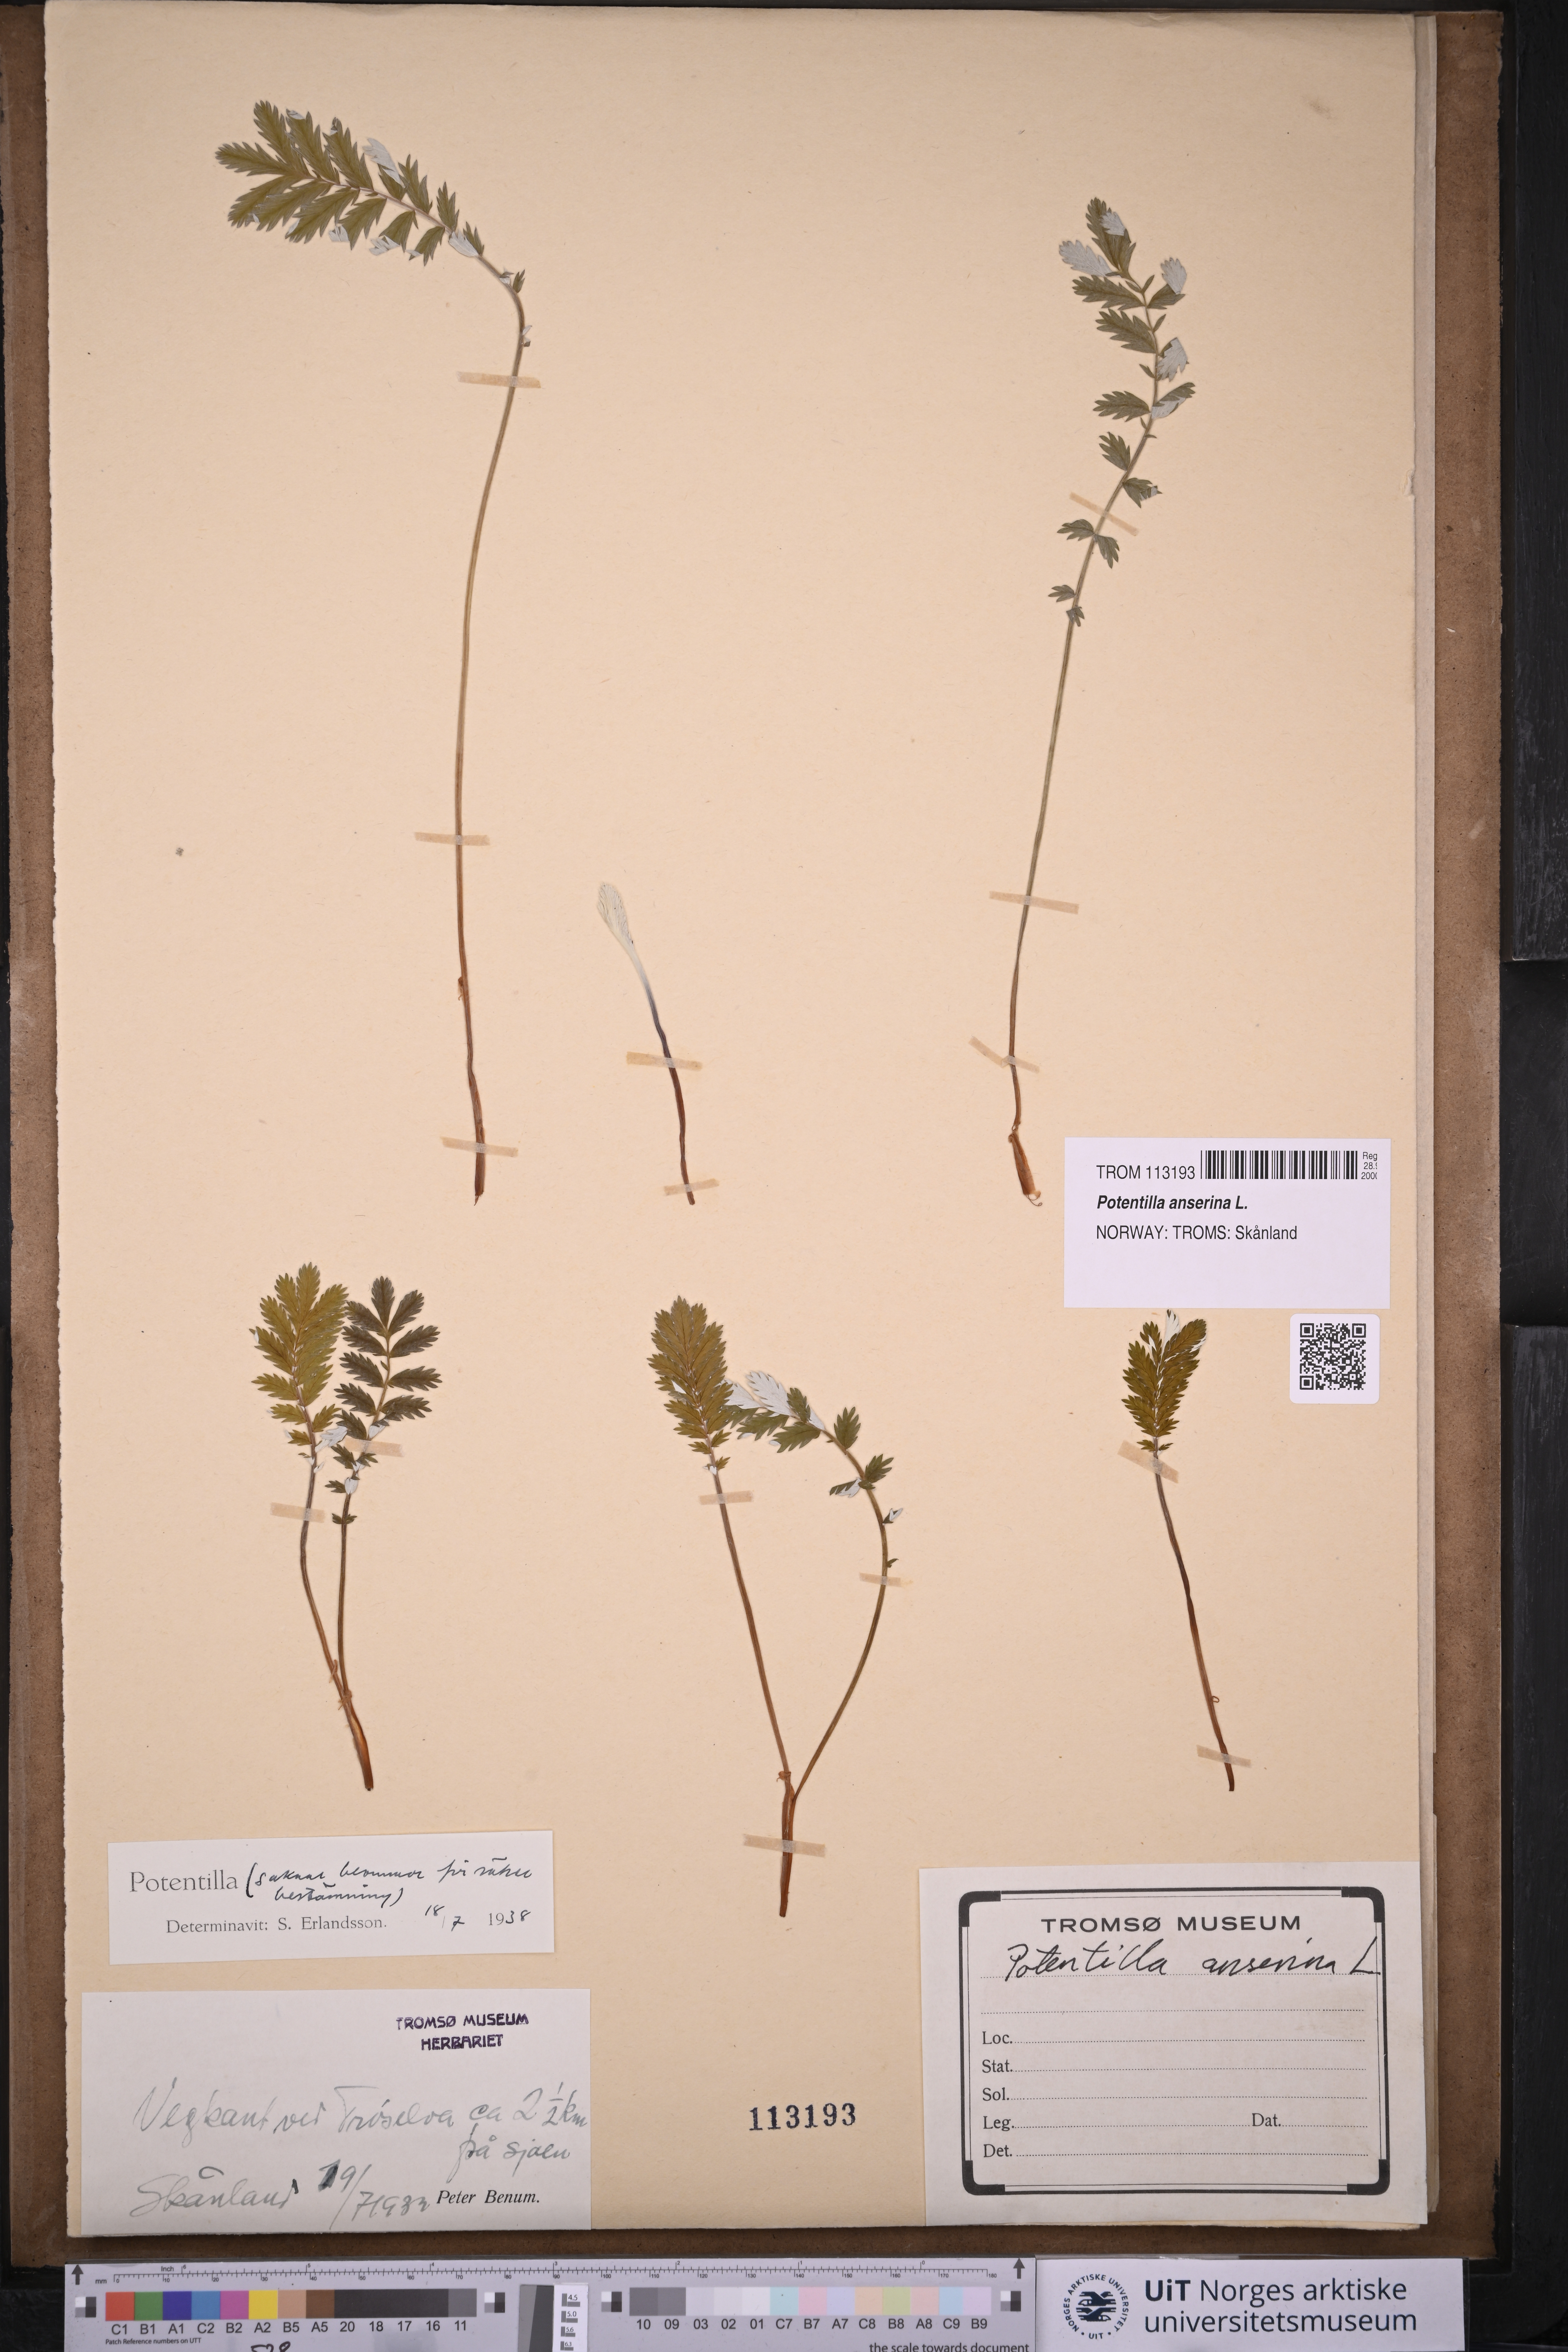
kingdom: Plantae
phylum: Tracheophyta
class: Magnoliopsida
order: Rosales
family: Rosaceae
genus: Argentina
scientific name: Argentina anserina
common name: Common silverweed
